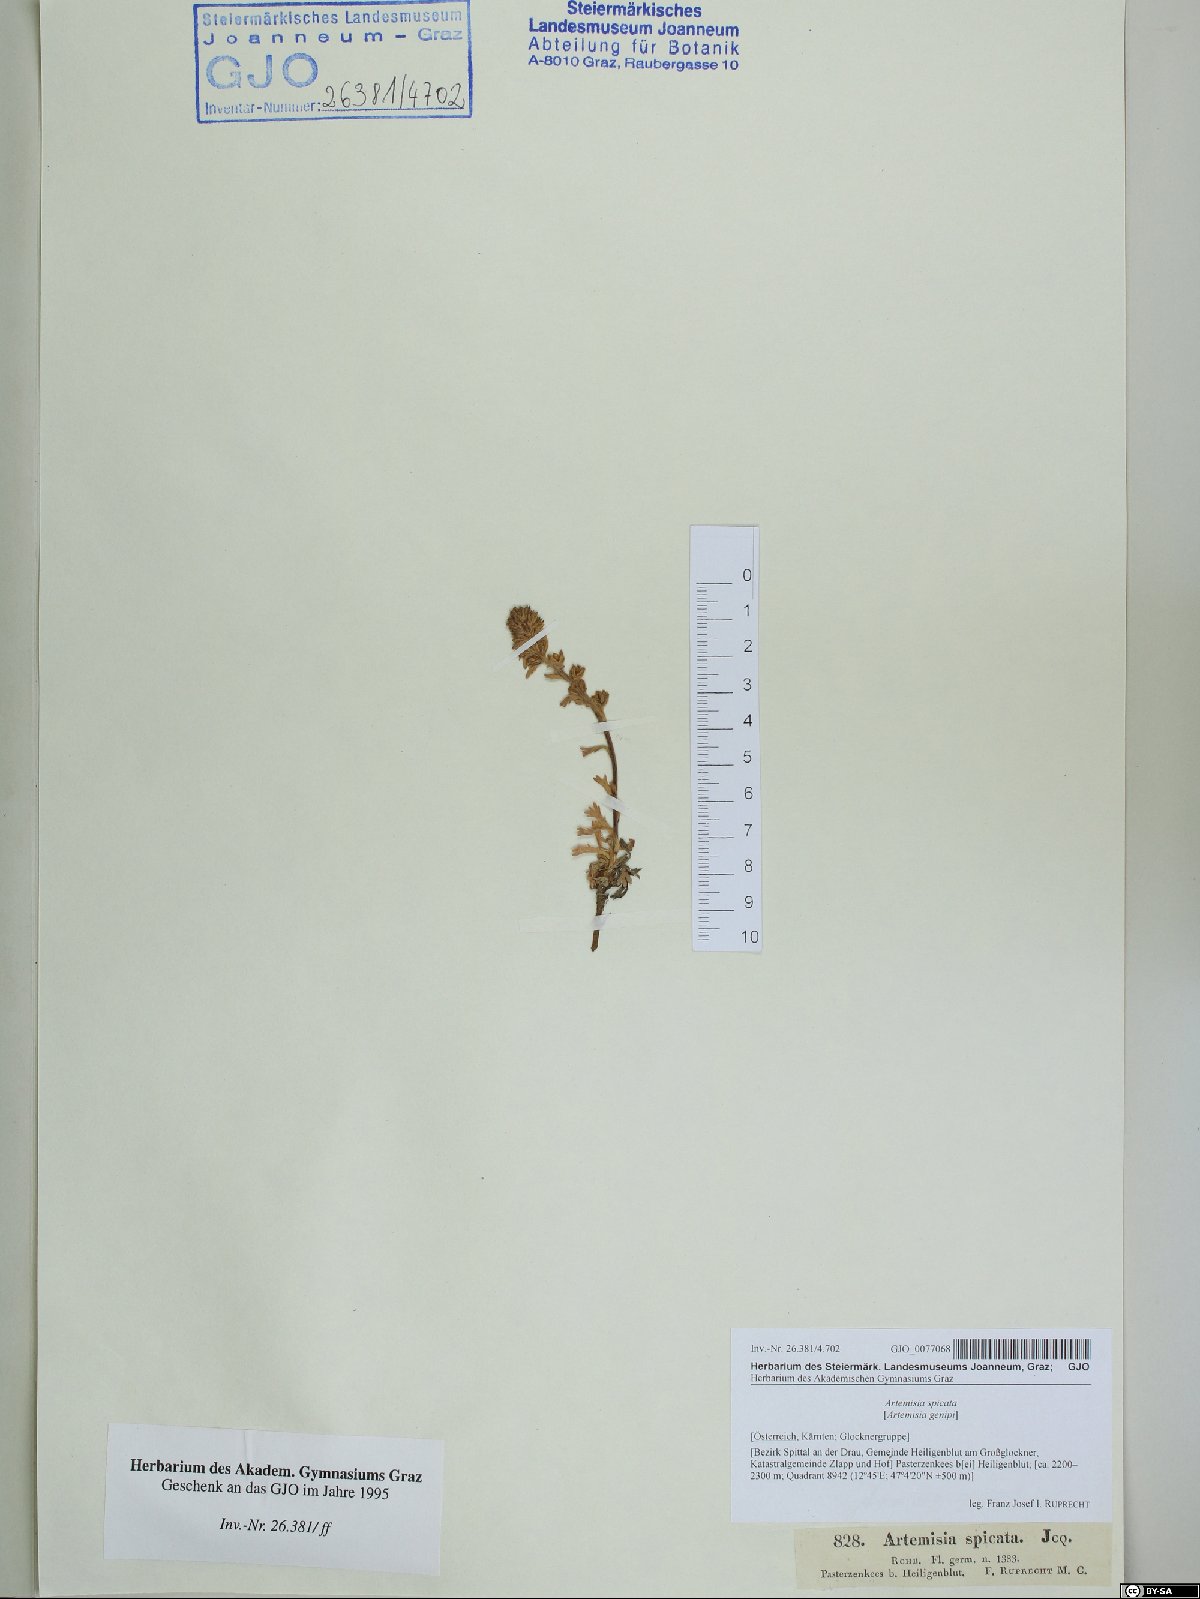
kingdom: Plantae
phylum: Tracheophyta
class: Magnoliopsida
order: Asterales
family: Asteraceae
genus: Artemisia
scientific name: Artemisia genipi
